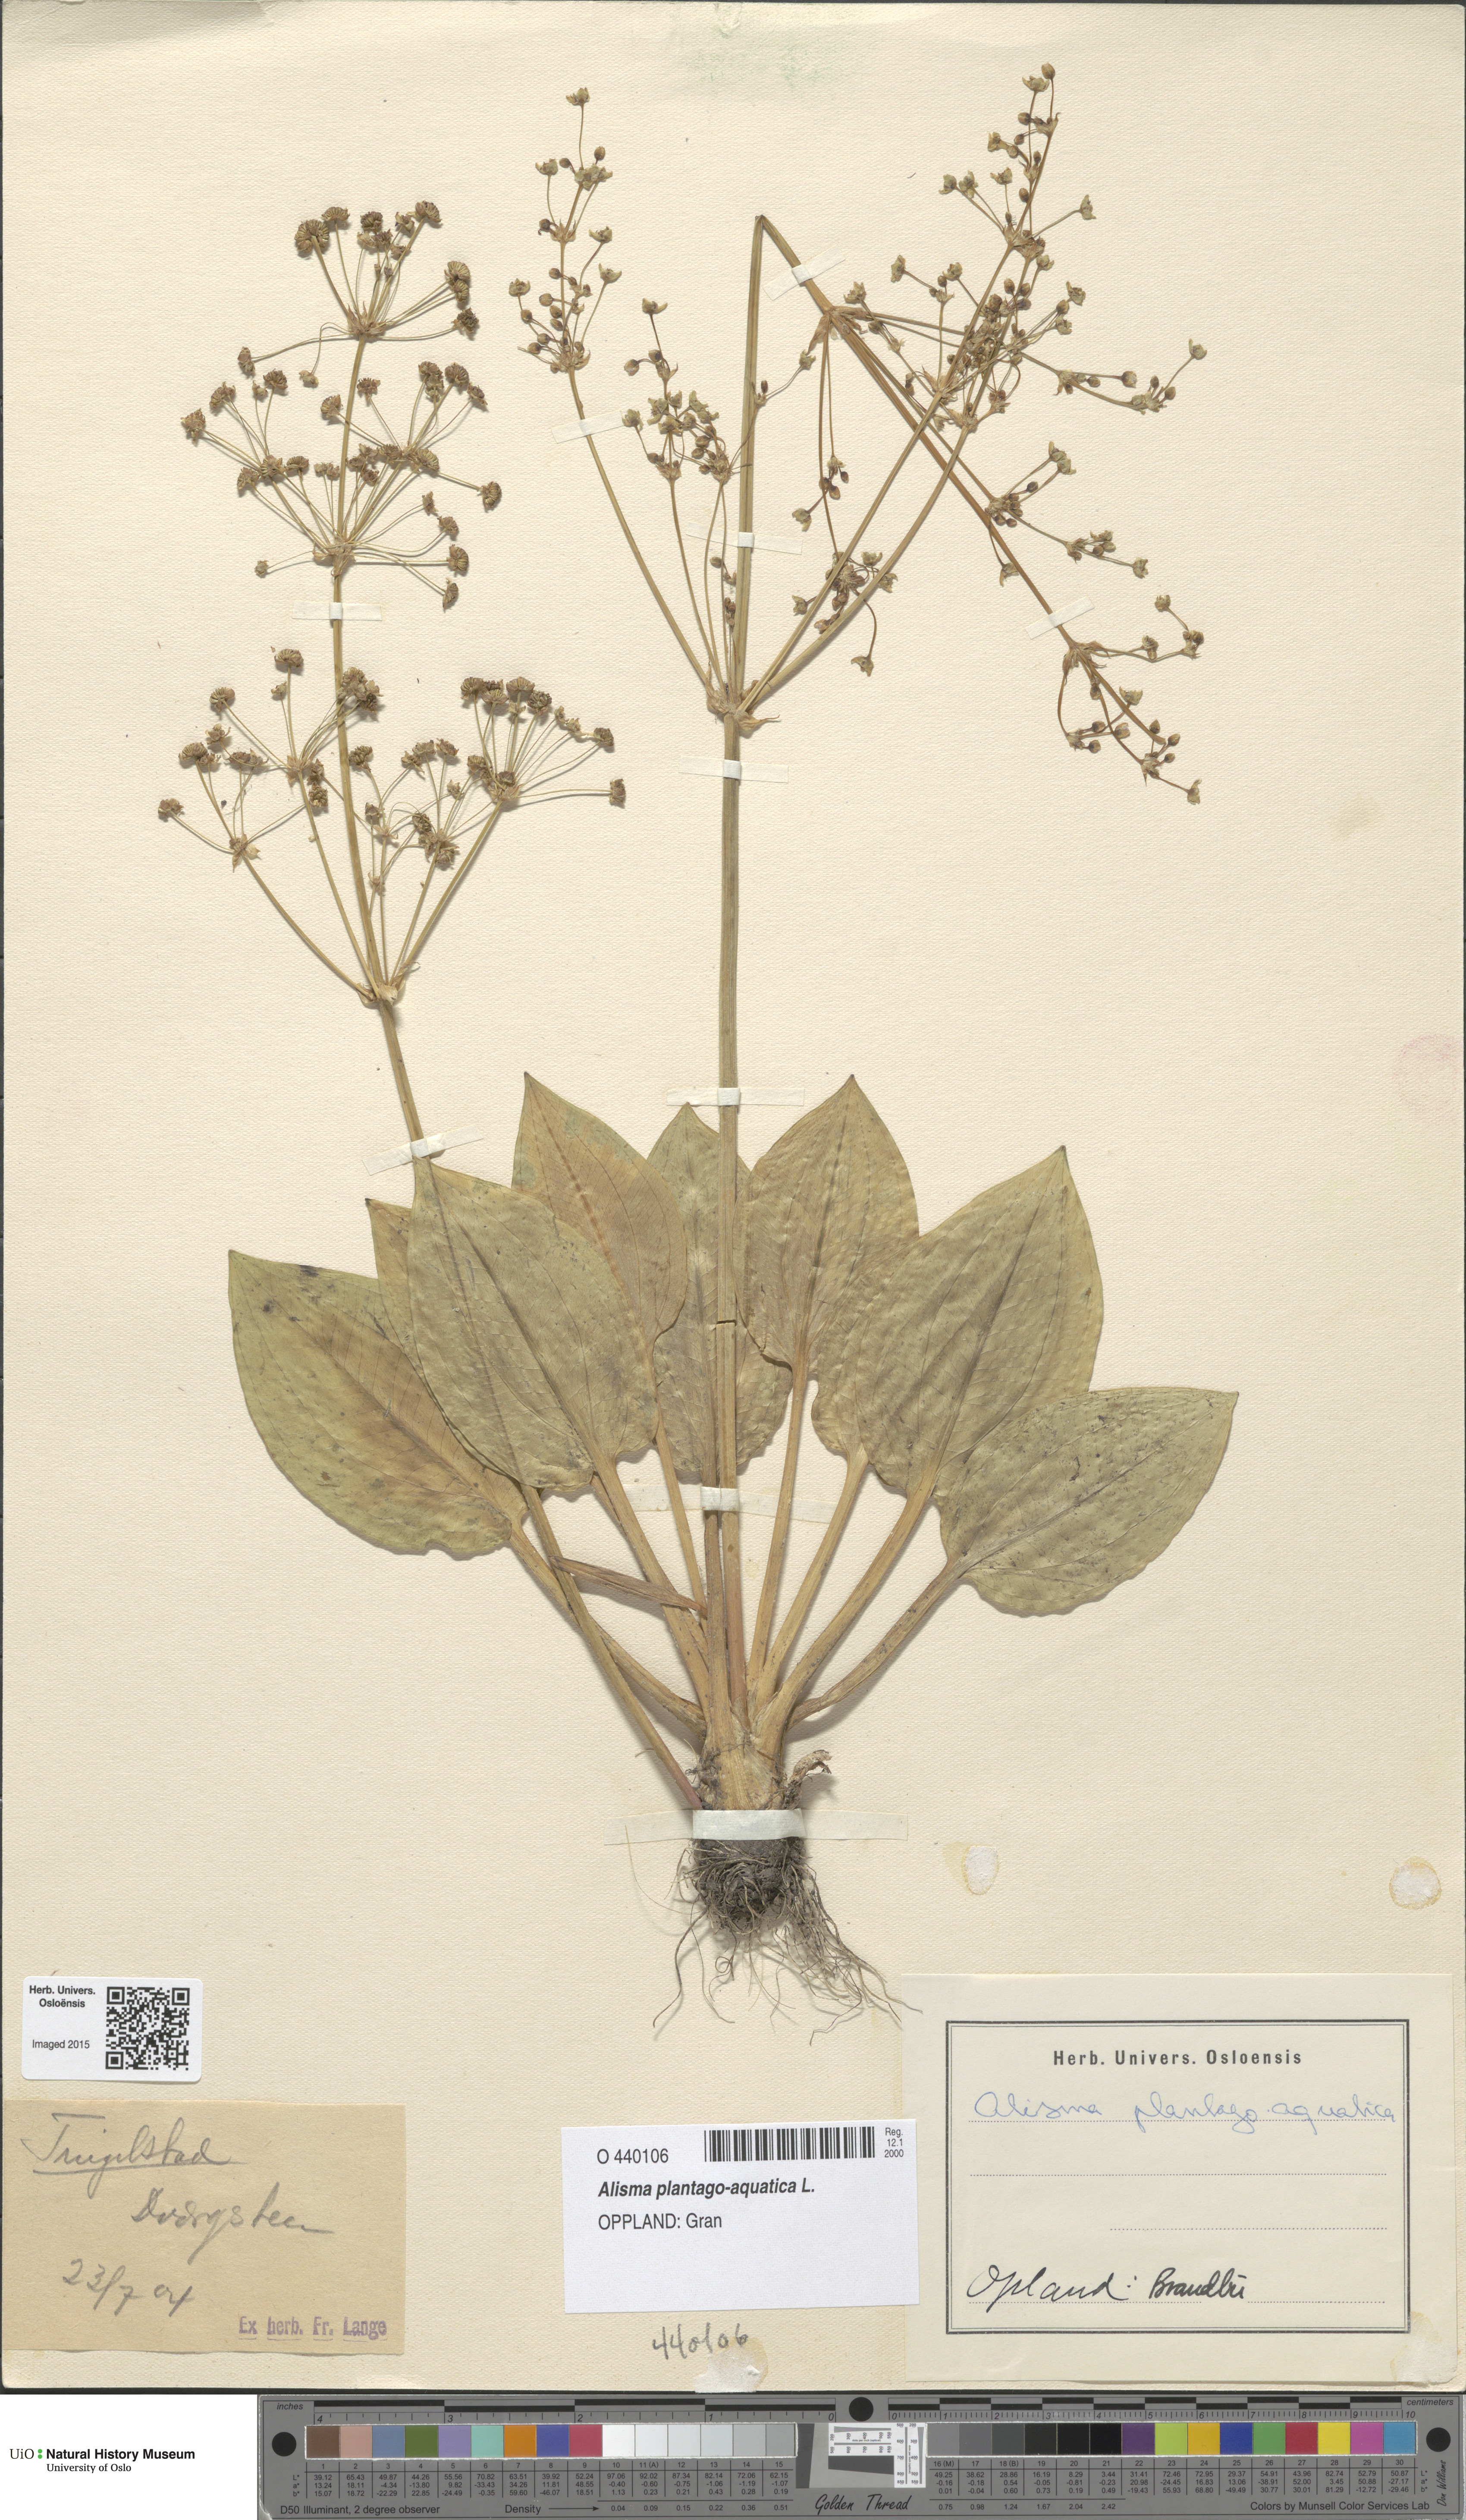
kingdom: Plantae
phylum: Tracheophyta
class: Liliopsida
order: Alismatales
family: Alismataceae
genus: Alisma
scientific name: Alisma plantago-aquatica
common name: Water-plantain
